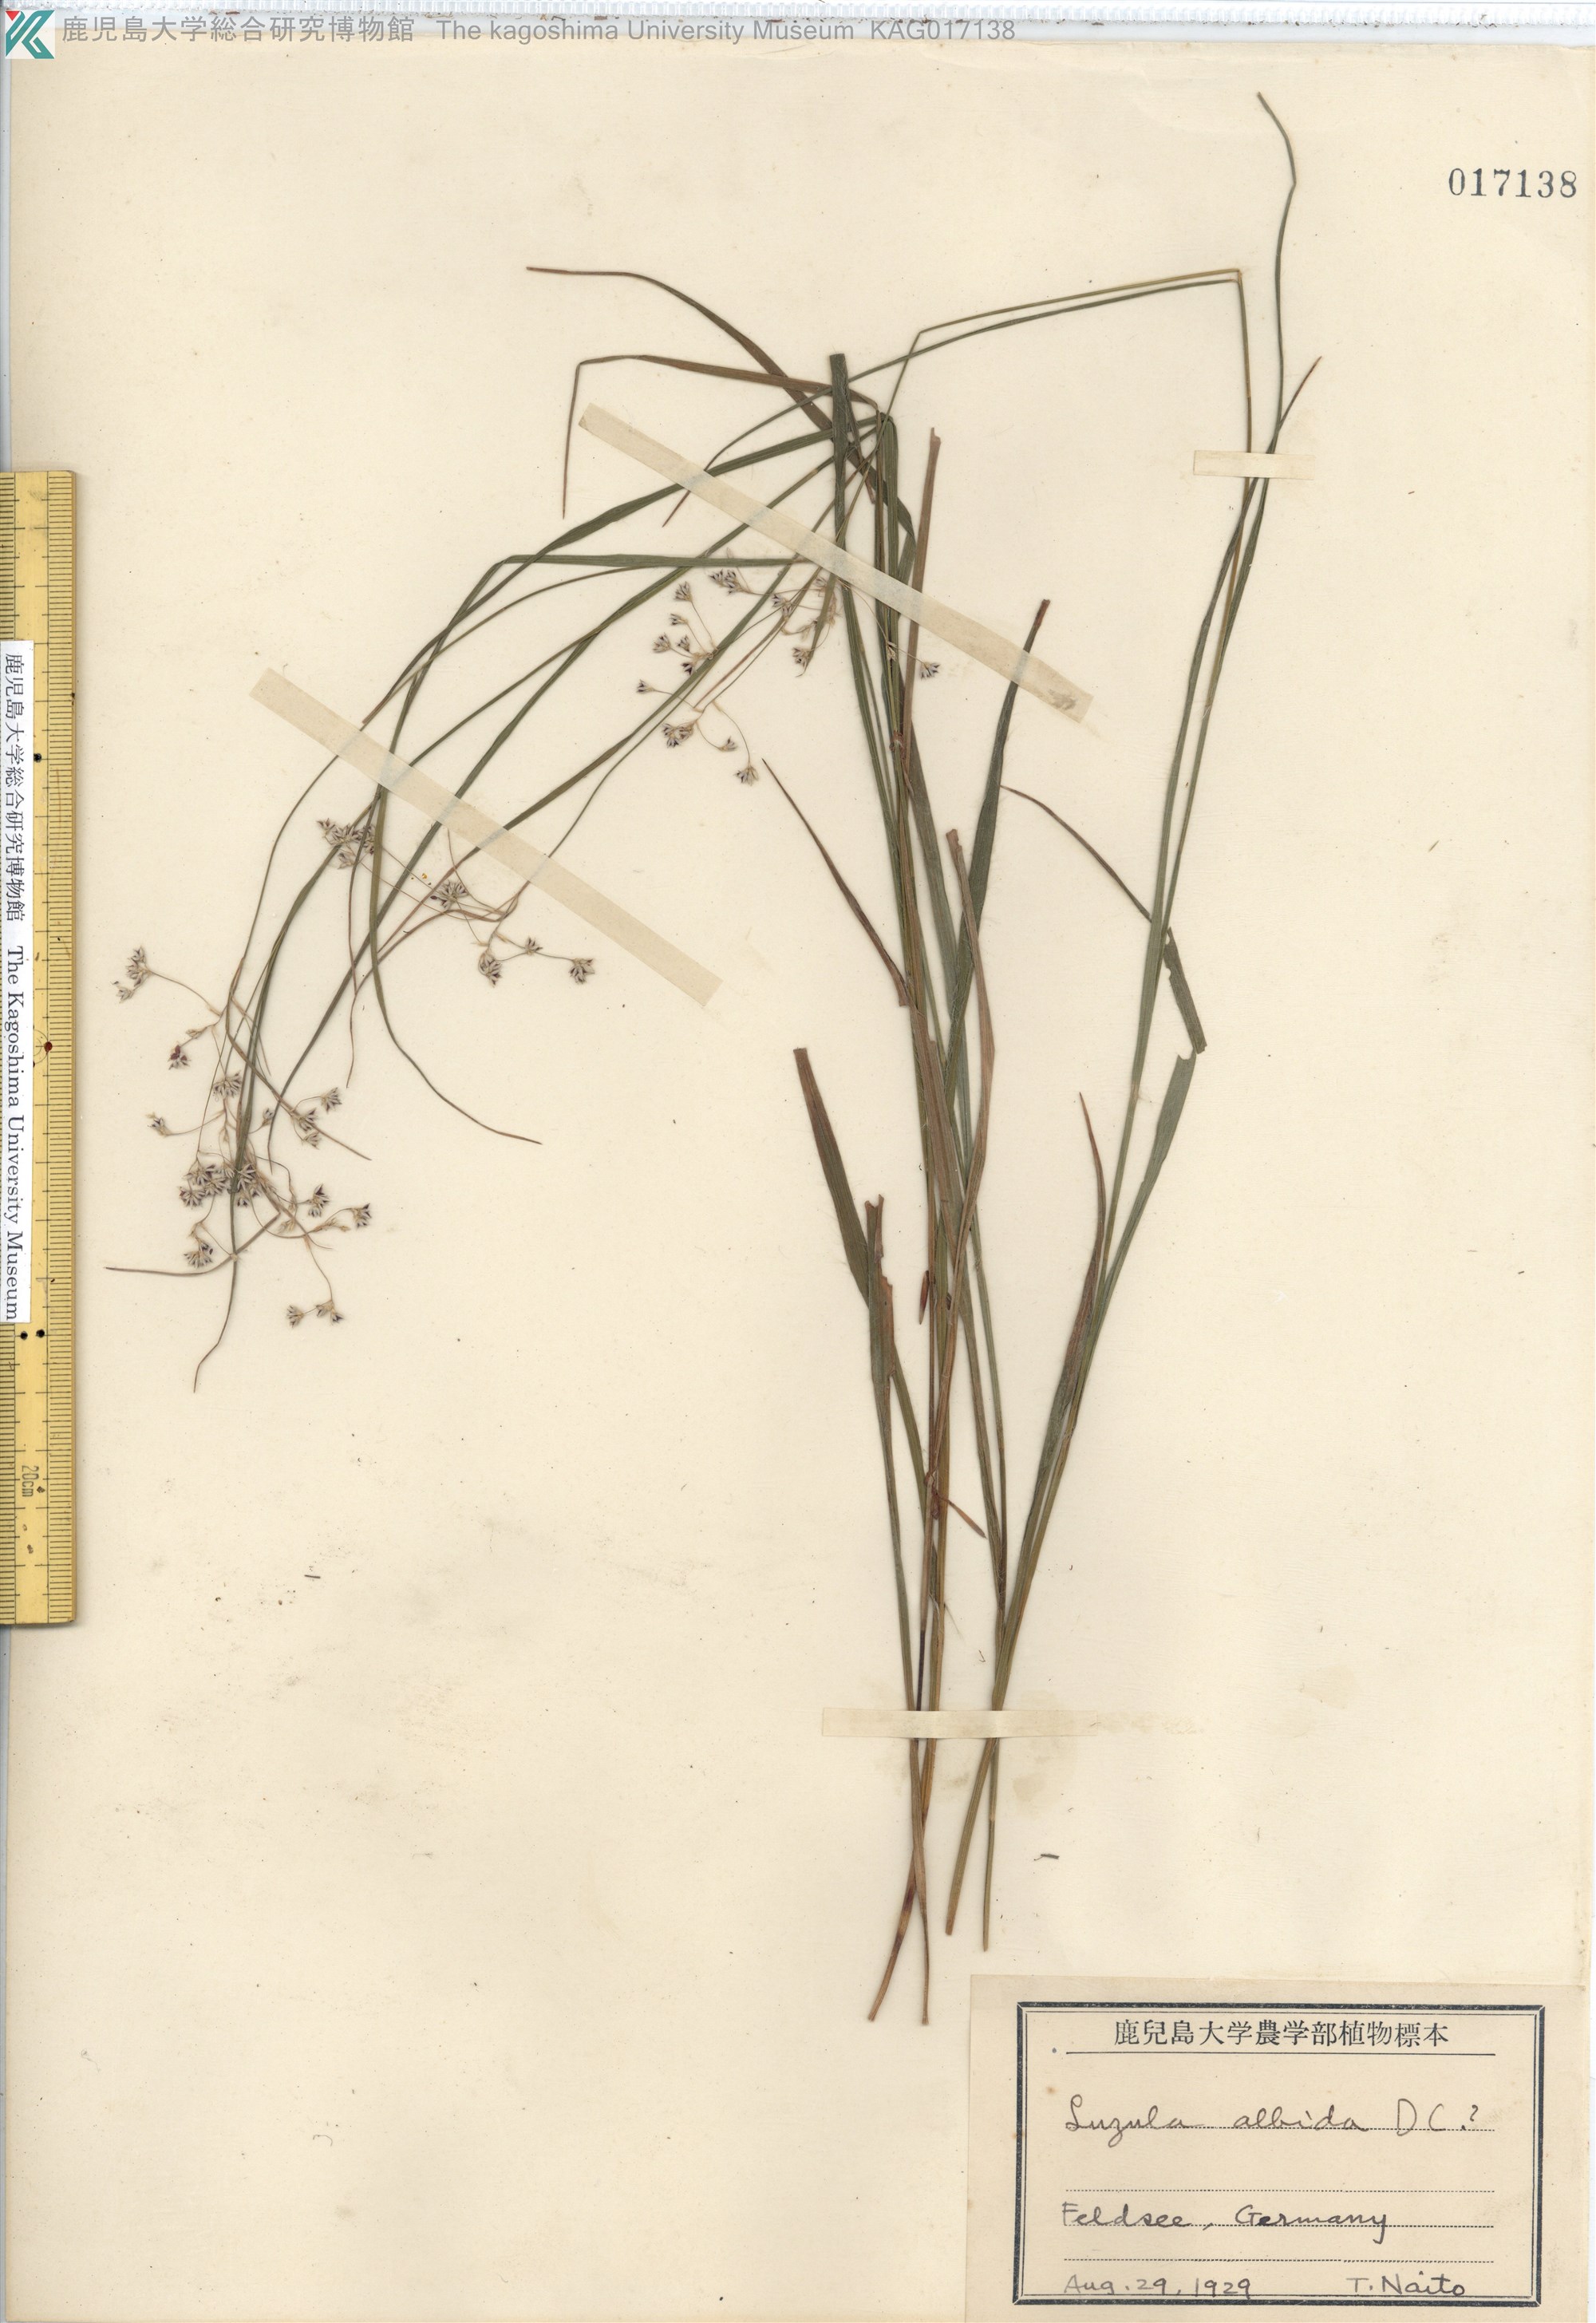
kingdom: Plantae
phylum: Tracheophyta
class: Liliopsida
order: Poales
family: Juncaceae
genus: Luzula
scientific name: Luzula luzuloides
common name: White wood-rush
